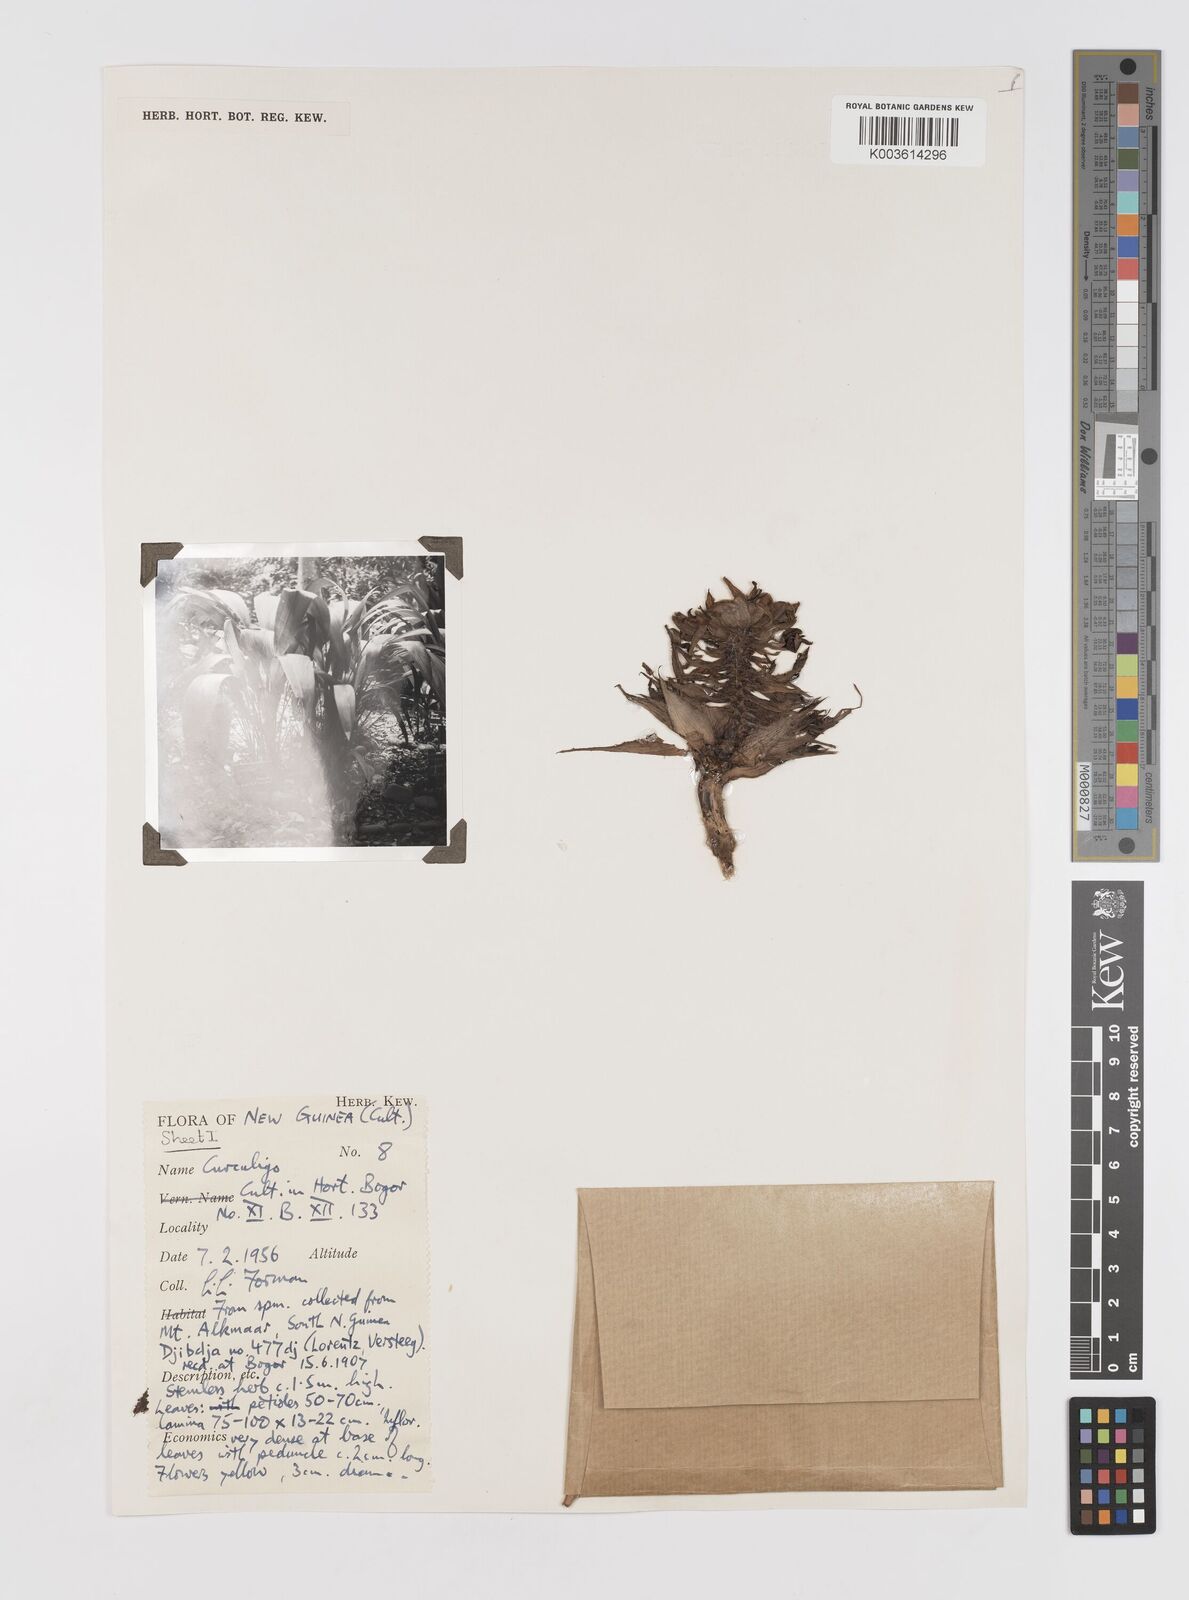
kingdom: Plantae
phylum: Tracheophyta
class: Liliopsida
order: Asparagales
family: Hypoxidaceae
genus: Curculigo
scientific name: Curculigo
